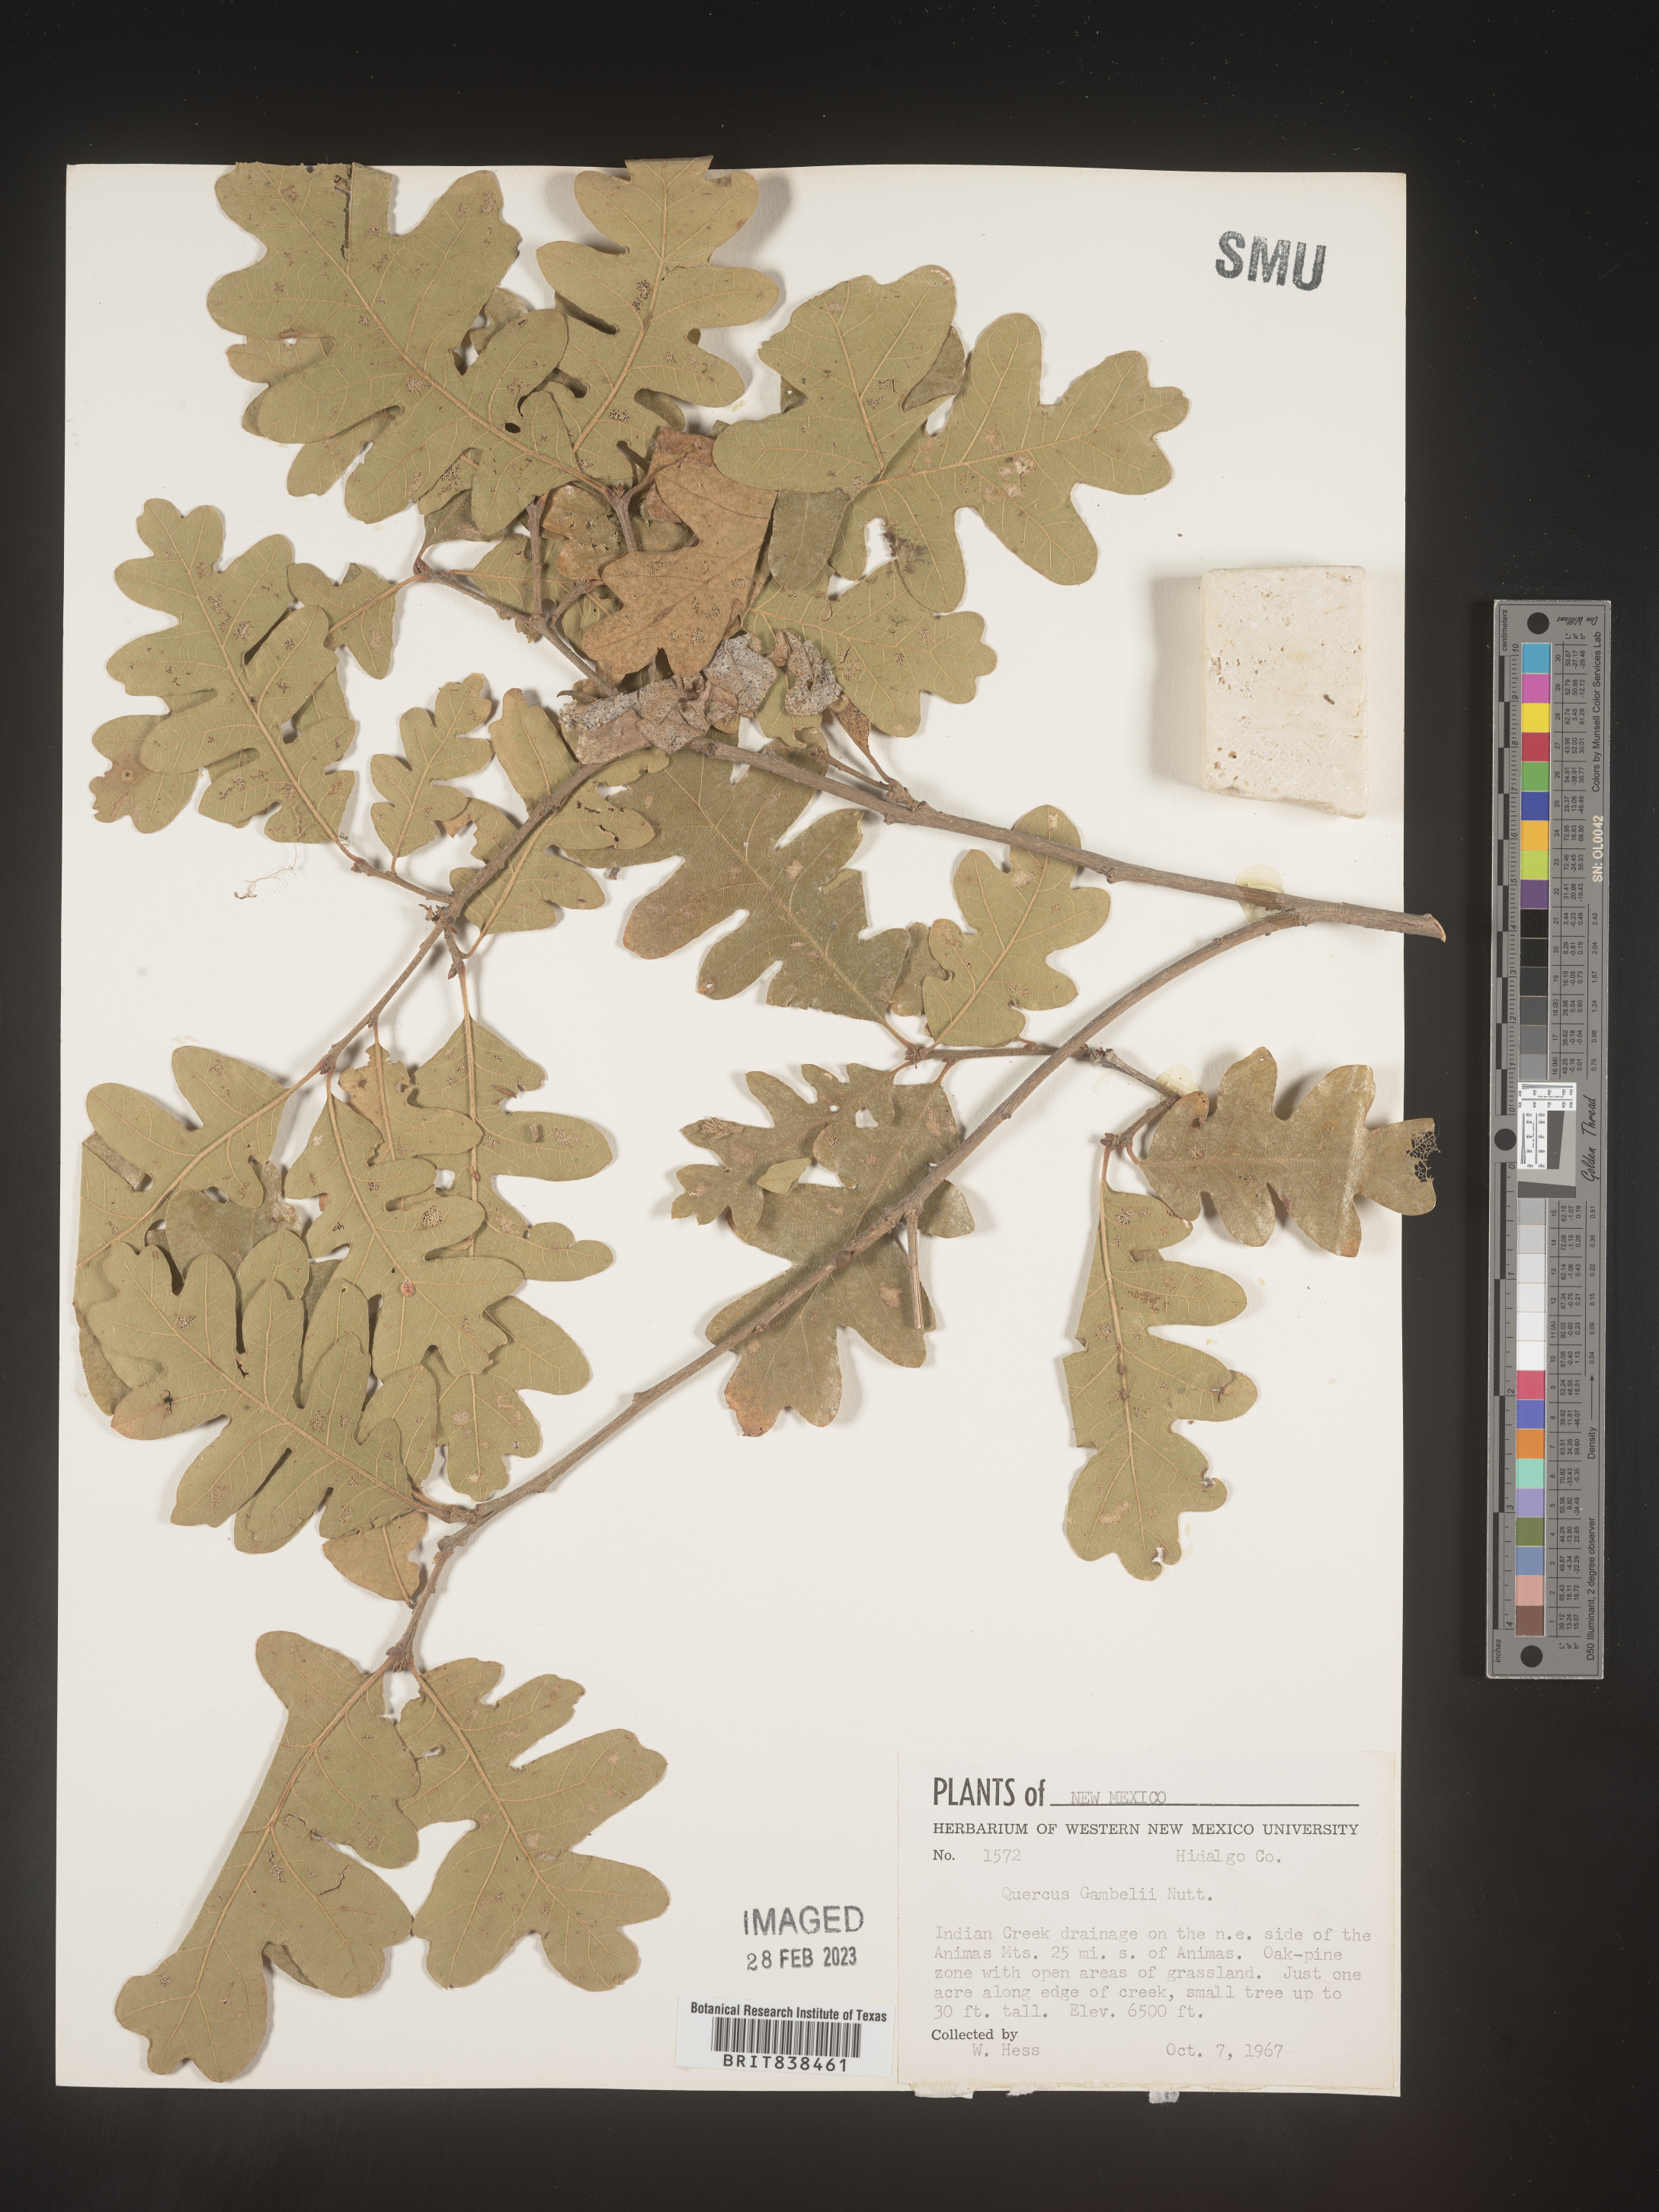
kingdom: Plantae
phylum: Tracheophyta
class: Magnoliopsida
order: Fagales
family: Fagaceae
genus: Quercus
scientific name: Quercus gambelii
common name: Gambel oak
